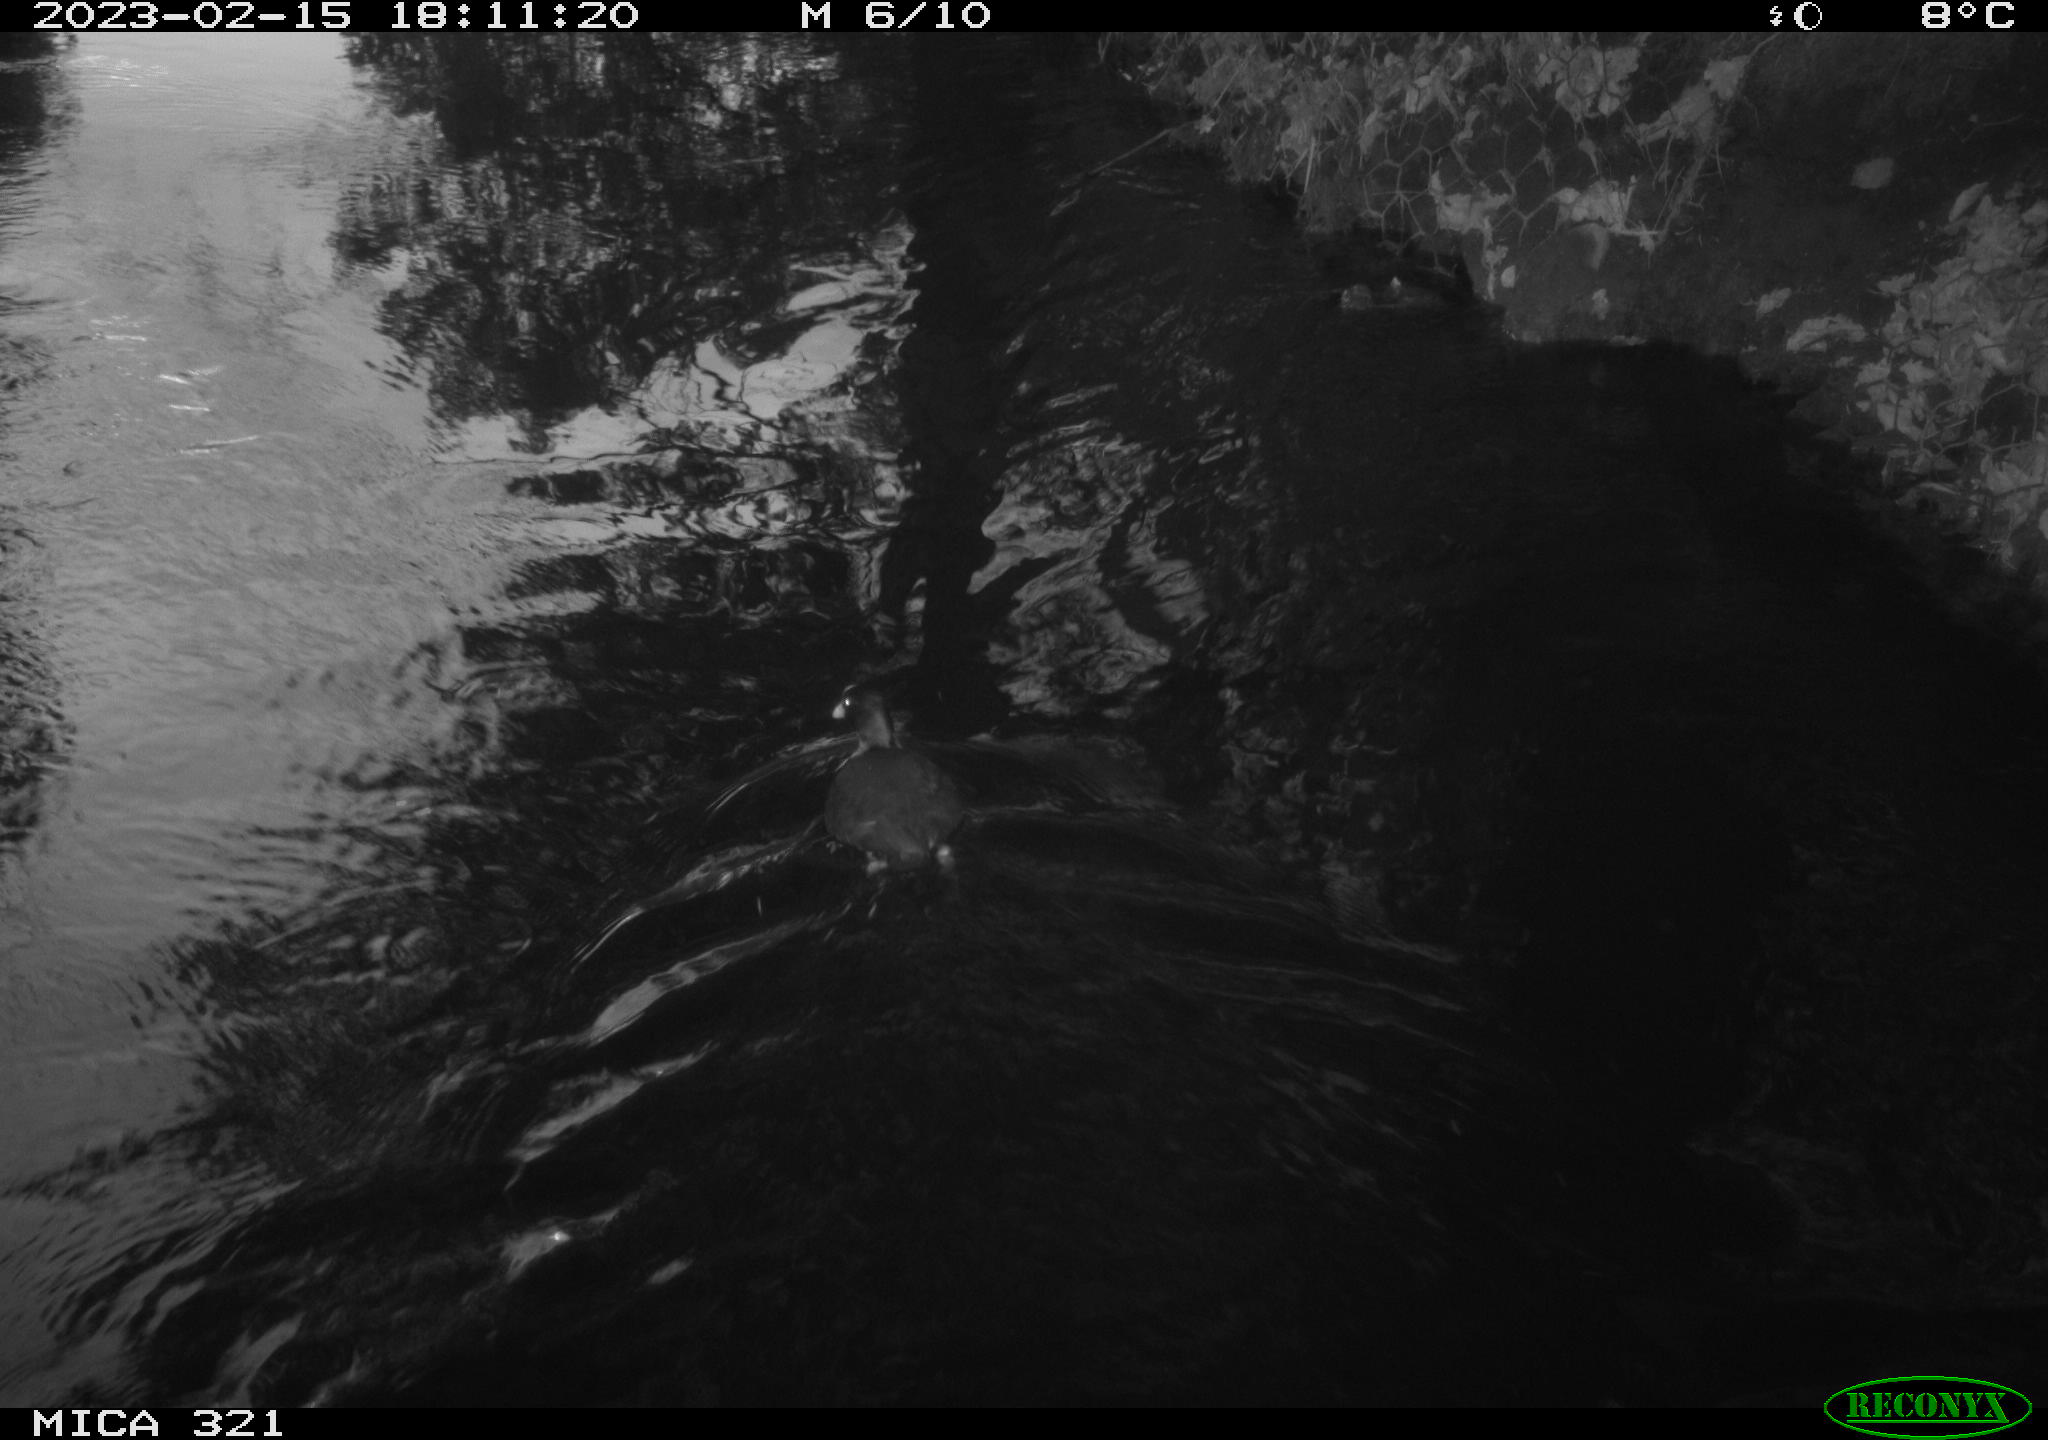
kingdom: Animalia
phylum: Chordata
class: Aves
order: Anseriformes
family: Anatidae
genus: Anas
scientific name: Anas
